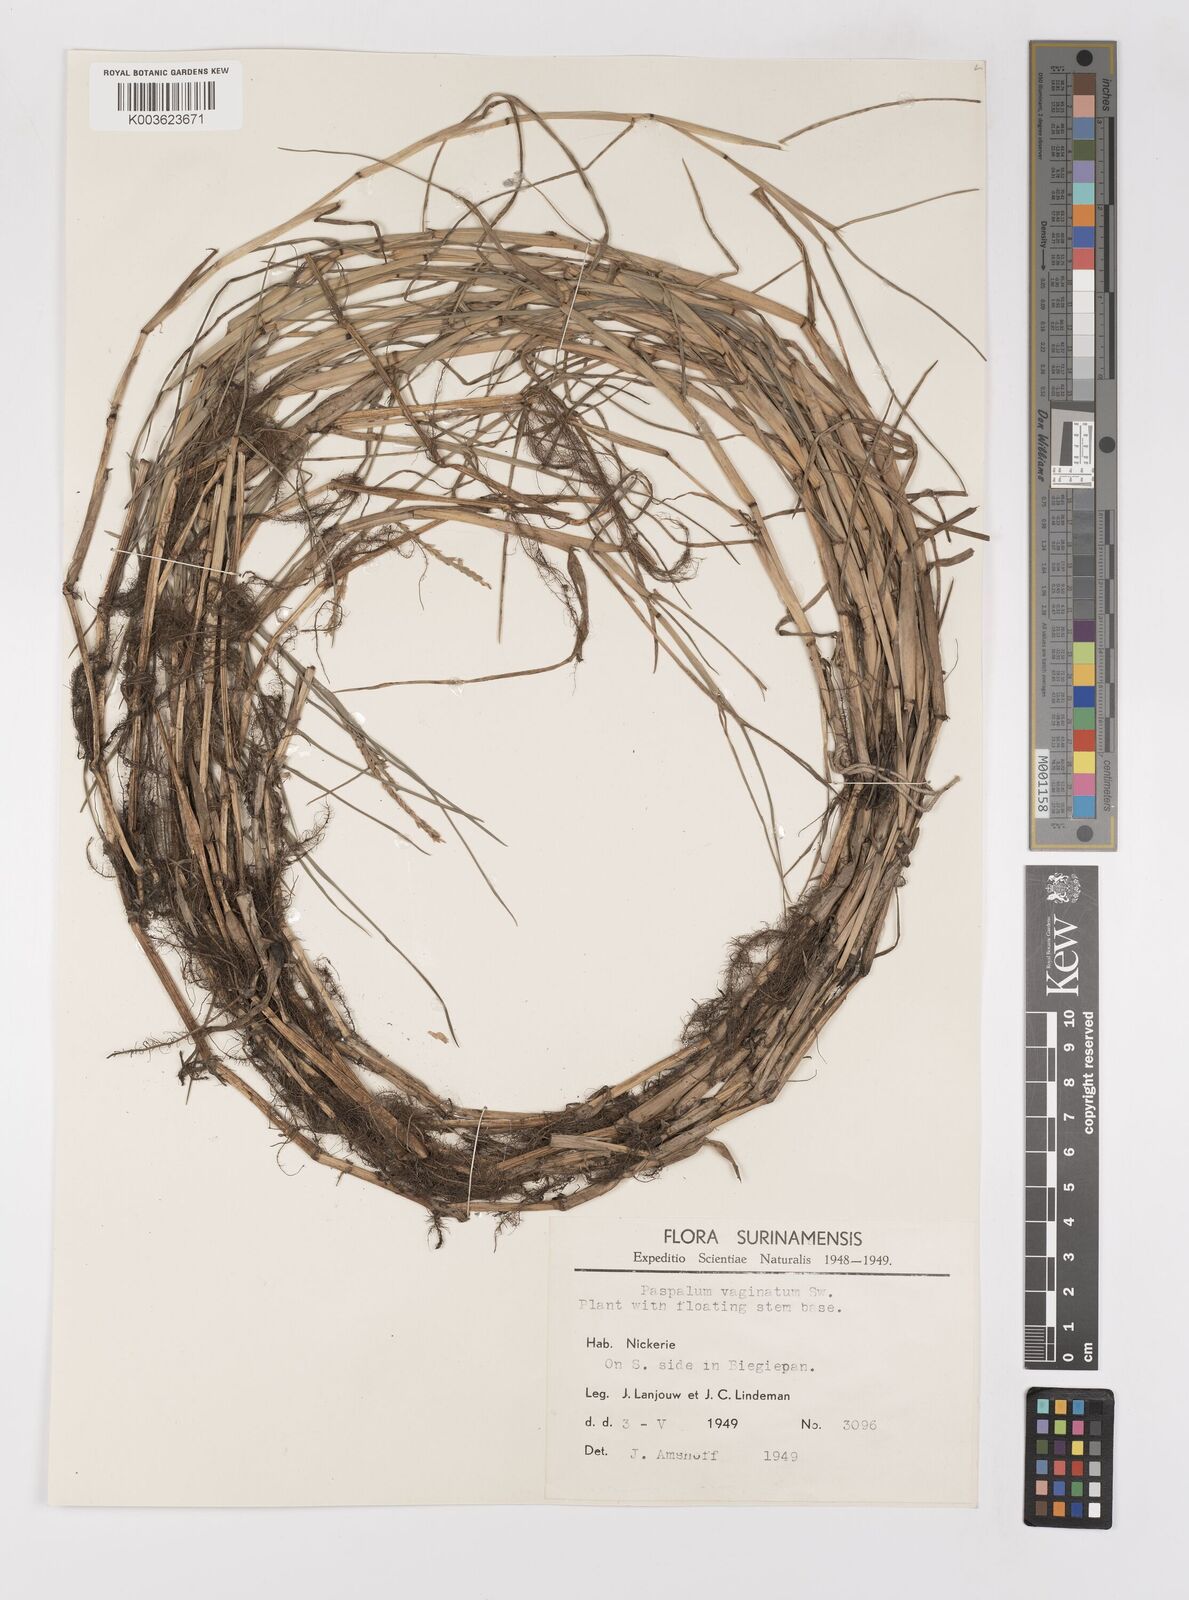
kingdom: Plantae
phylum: Tracheophyta
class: Liliopsida
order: Poales
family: Poaceae
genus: Paspalum
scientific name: Paspalum vaginatum
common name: Seashore paspalum
